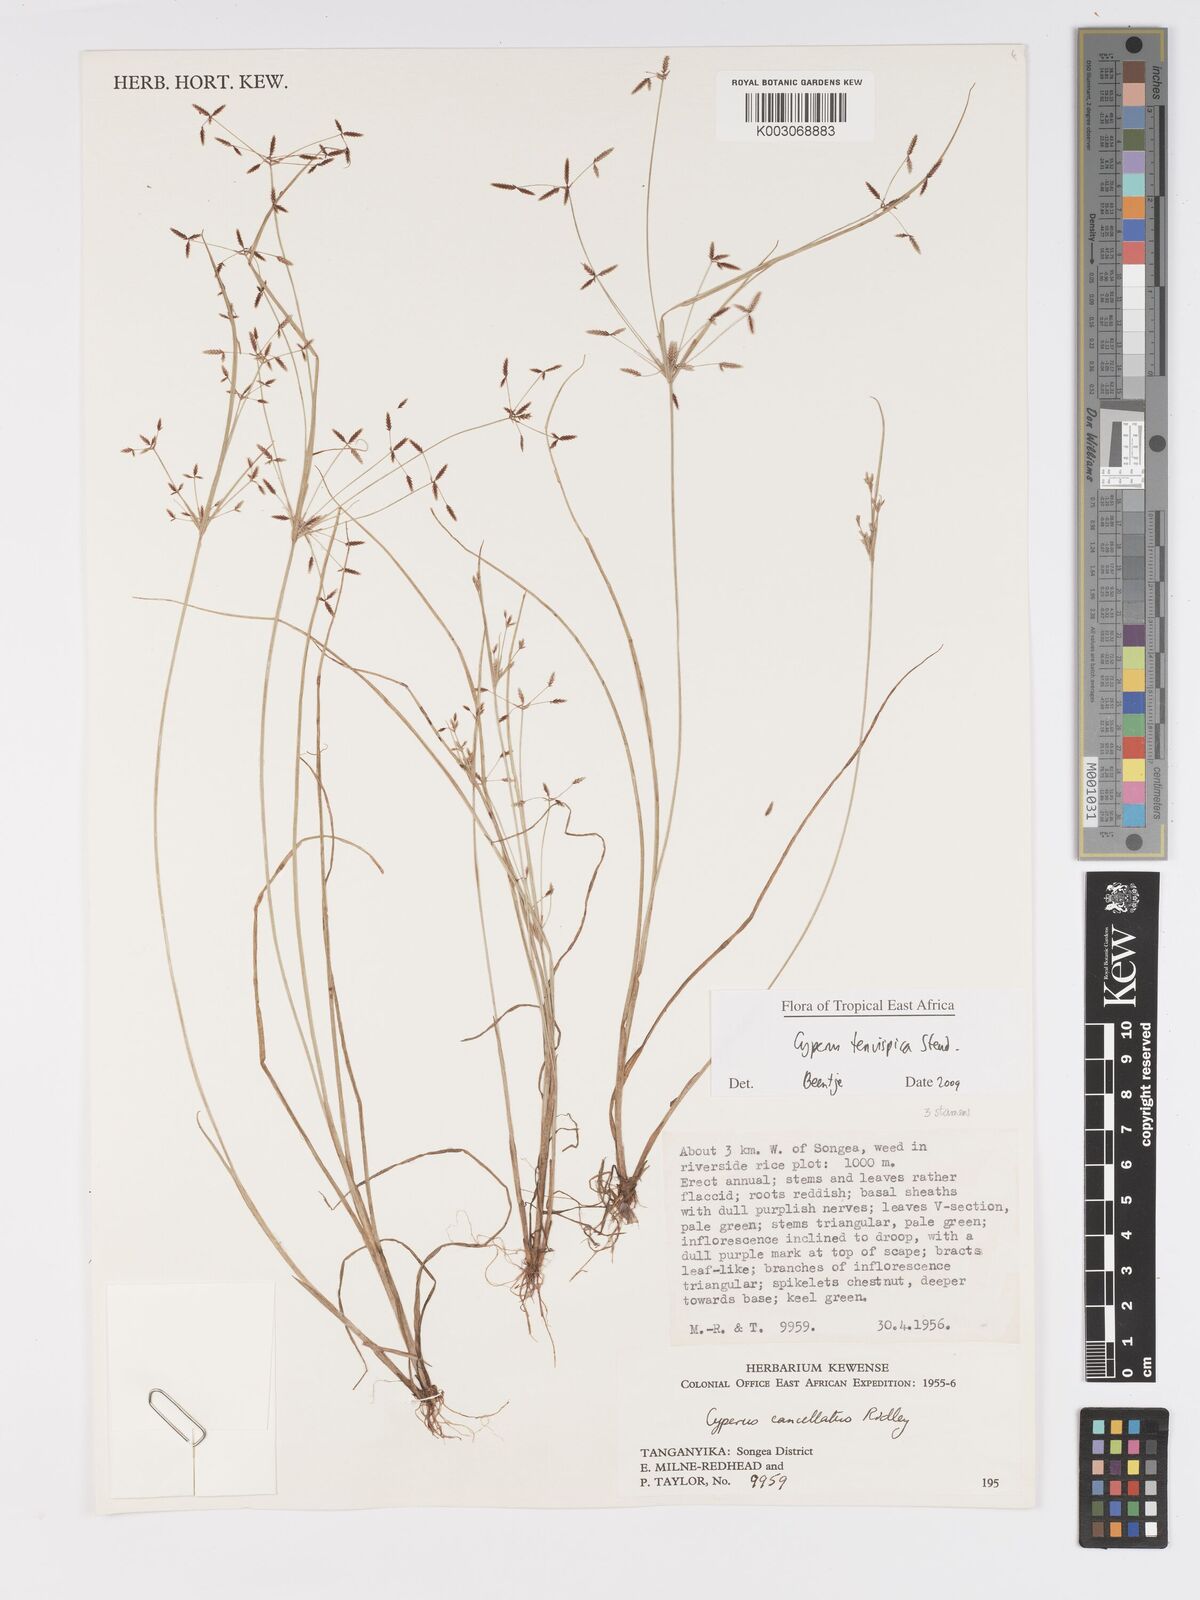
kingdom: Plantae
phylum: Tracheophyta
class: Liliopsida
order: Poales
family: Cyperaceae
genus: Cyperus
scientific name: Cyperus tenuispica
